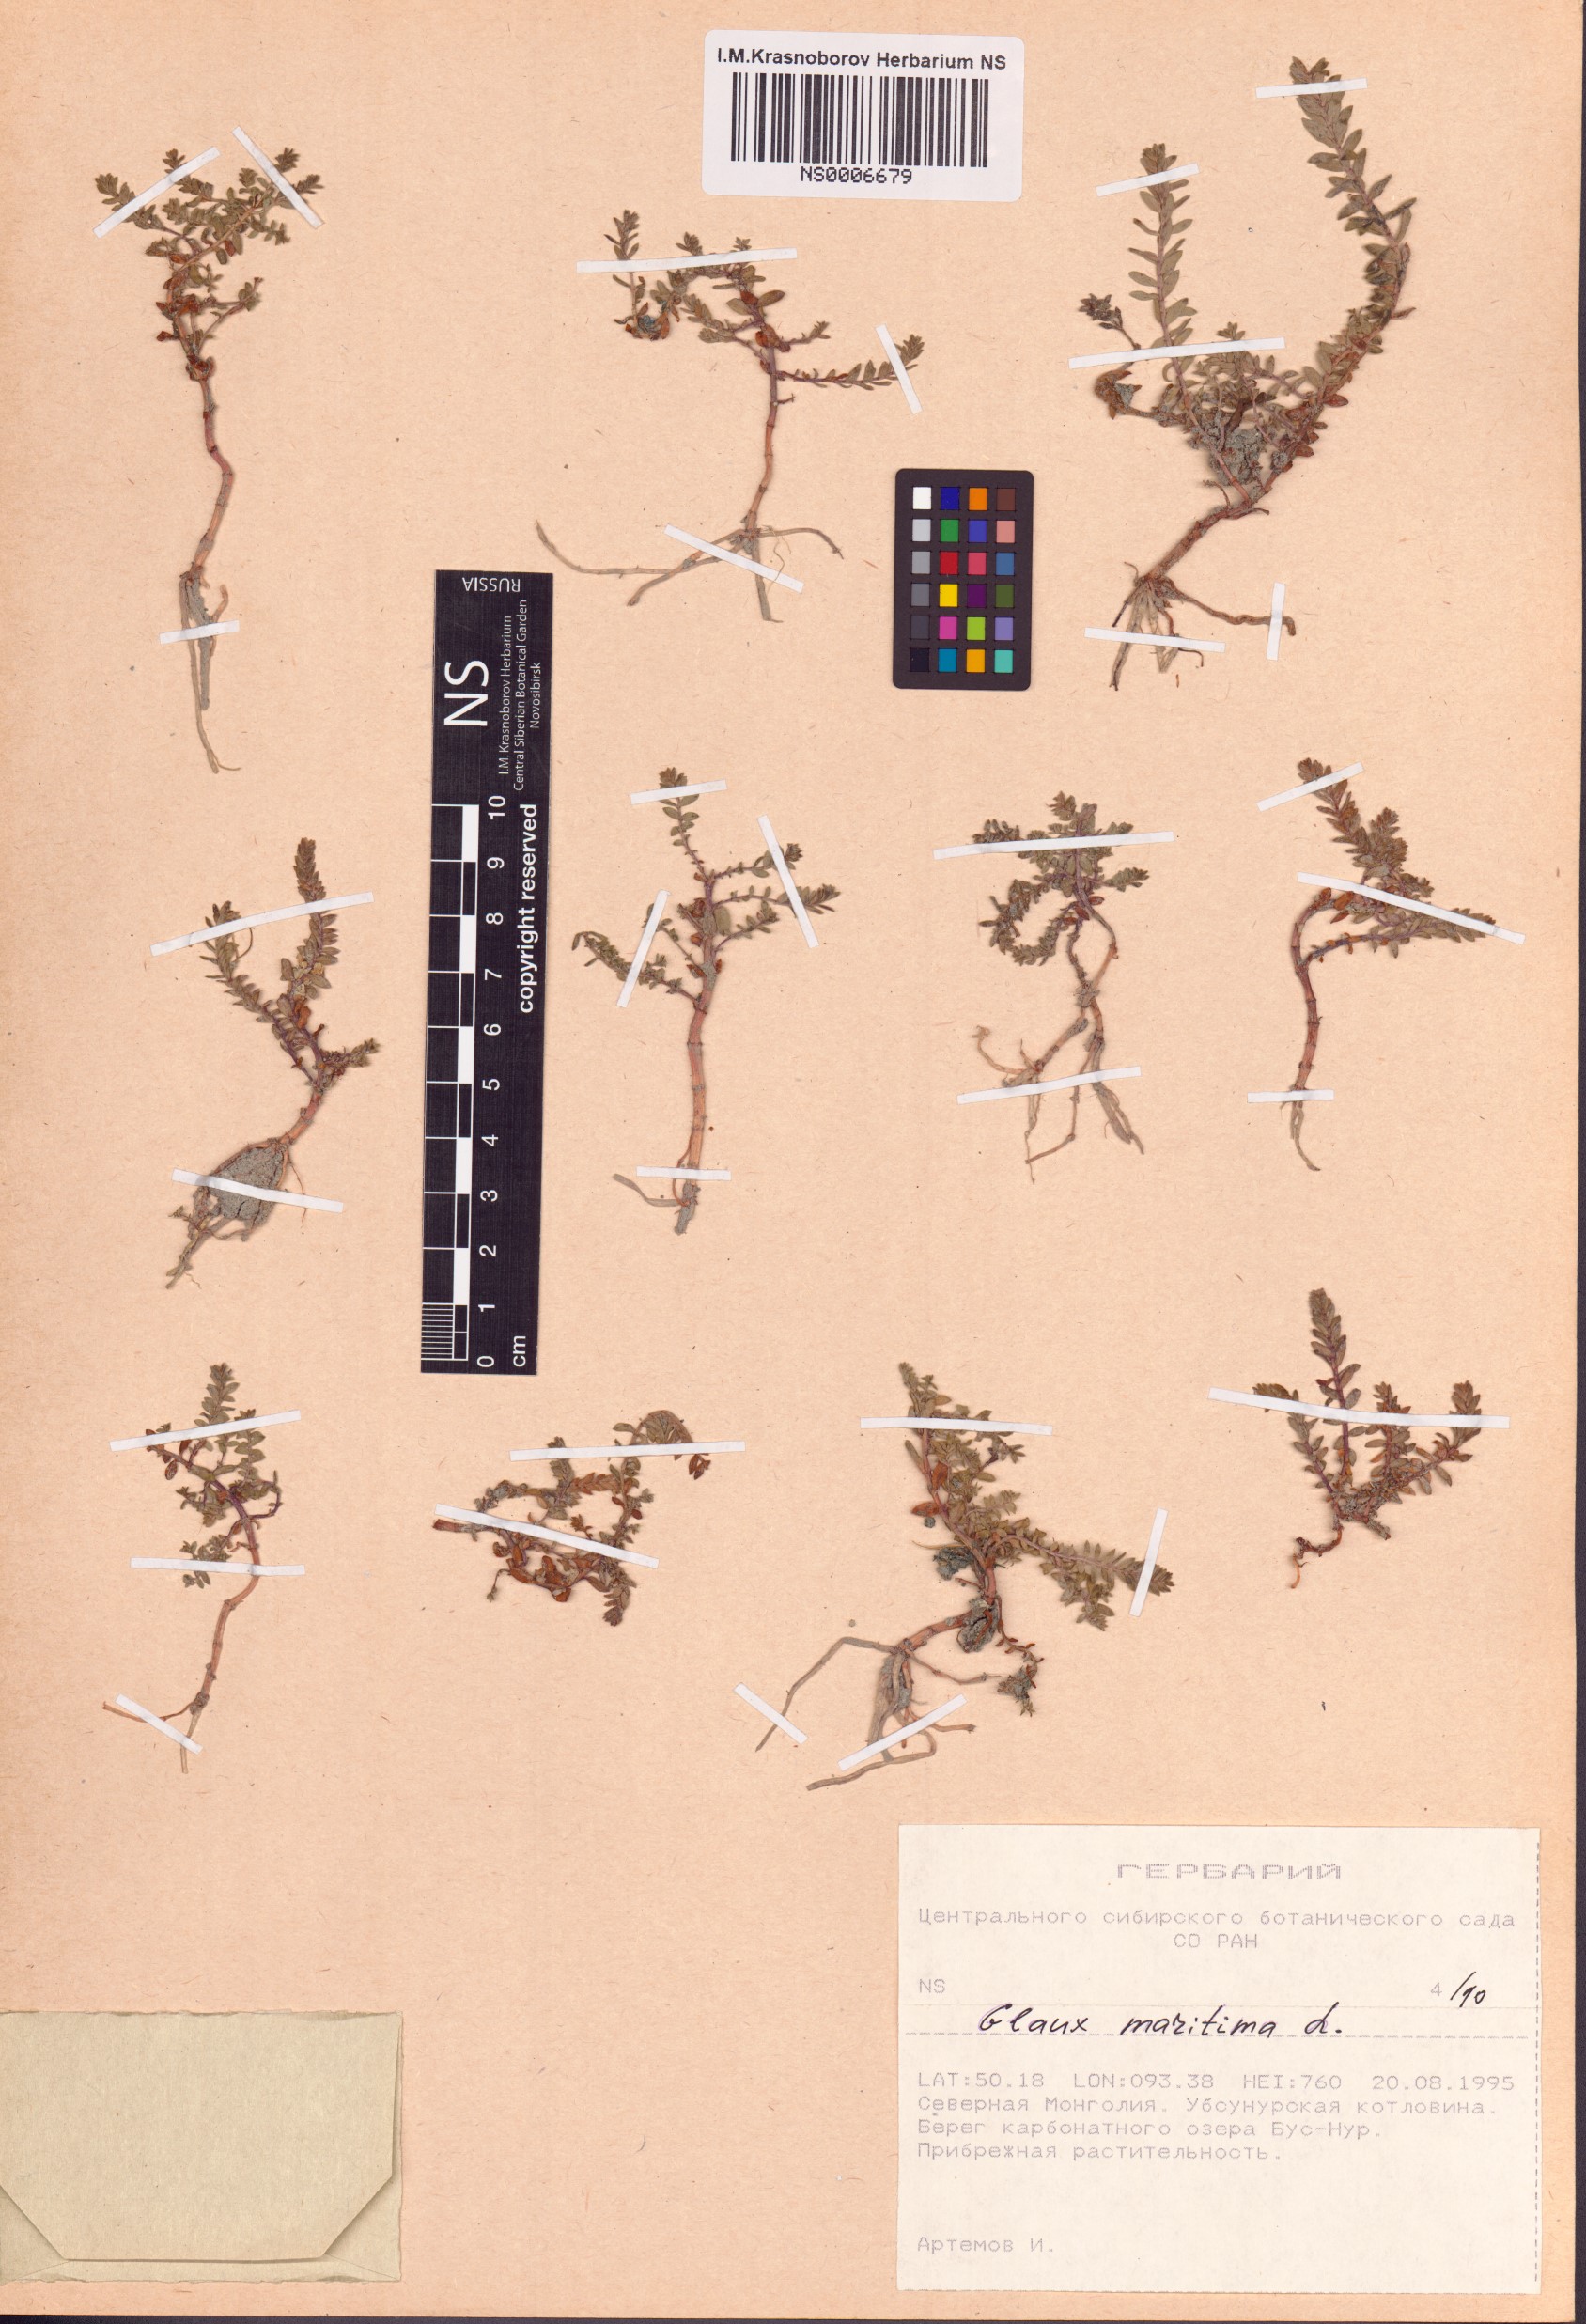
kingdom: Plantae
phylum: Tracheophyta
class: Magnoliopsida
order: Ericales
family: Primulaceae
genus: Lysimachia
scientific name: Lysimachia maritima
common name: Sea milkwort
